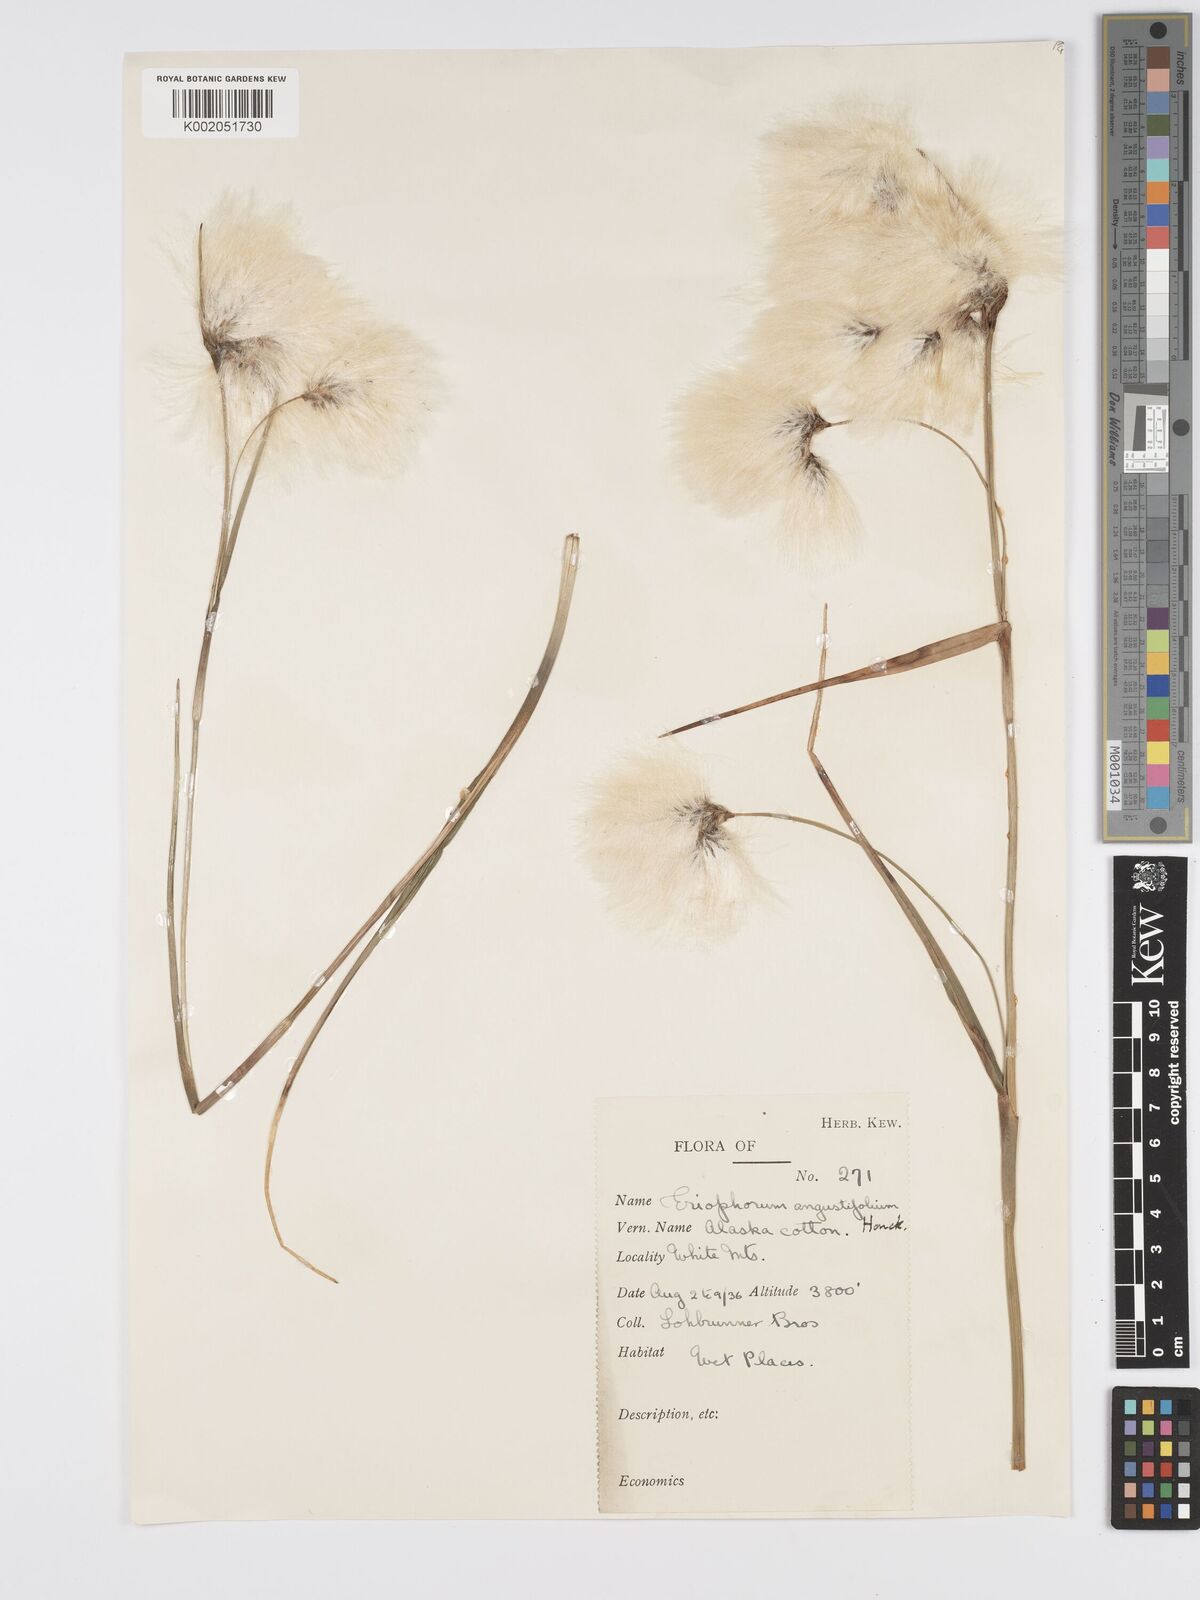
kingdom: Plantae
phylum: Tracheophyta
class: Liliopsida
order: Poales
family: Cyperaceae
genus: Eriophorum
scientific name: Eriophorum angustifolium
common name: Common cottongrass
